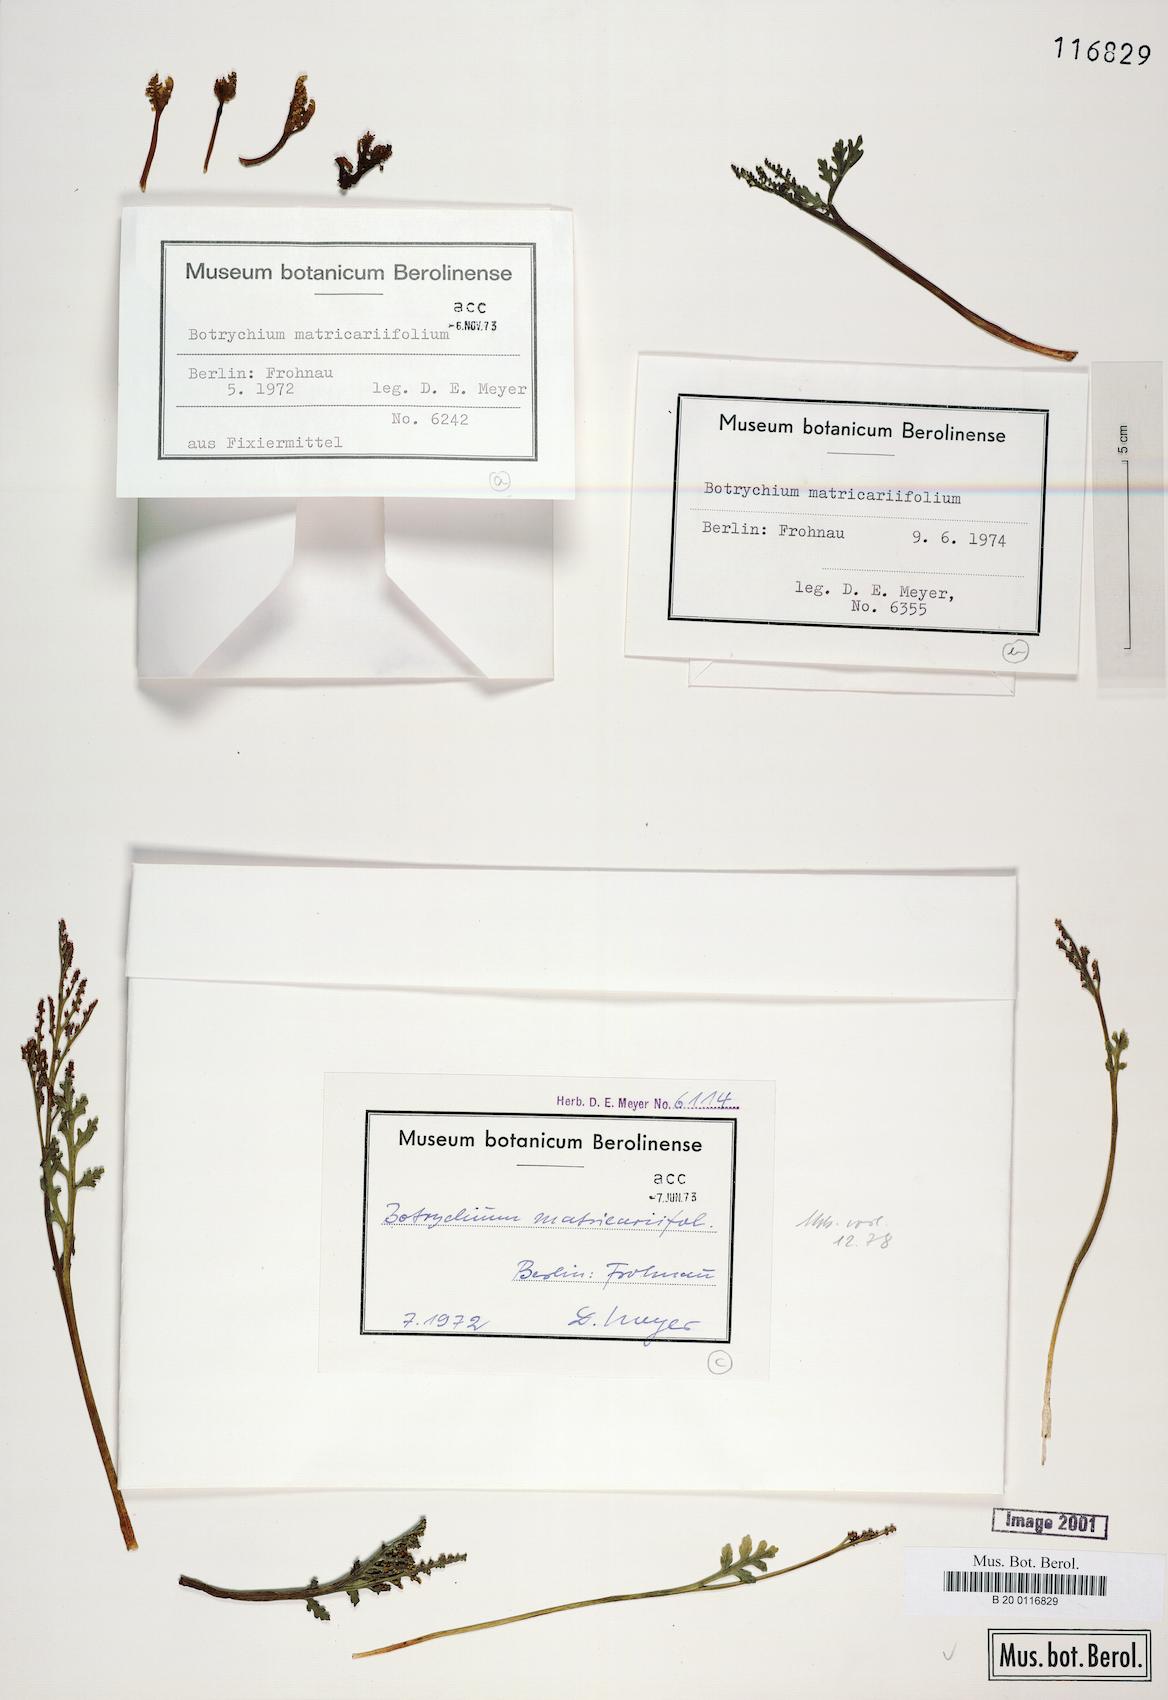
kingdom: Plantae
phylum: Tracheophyta
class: Polypodiopsida
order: Ophioglossales
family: Ophioglossaceae
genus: Botrychium
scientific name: Botrychium matricariifolium
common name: Branched moonwort
